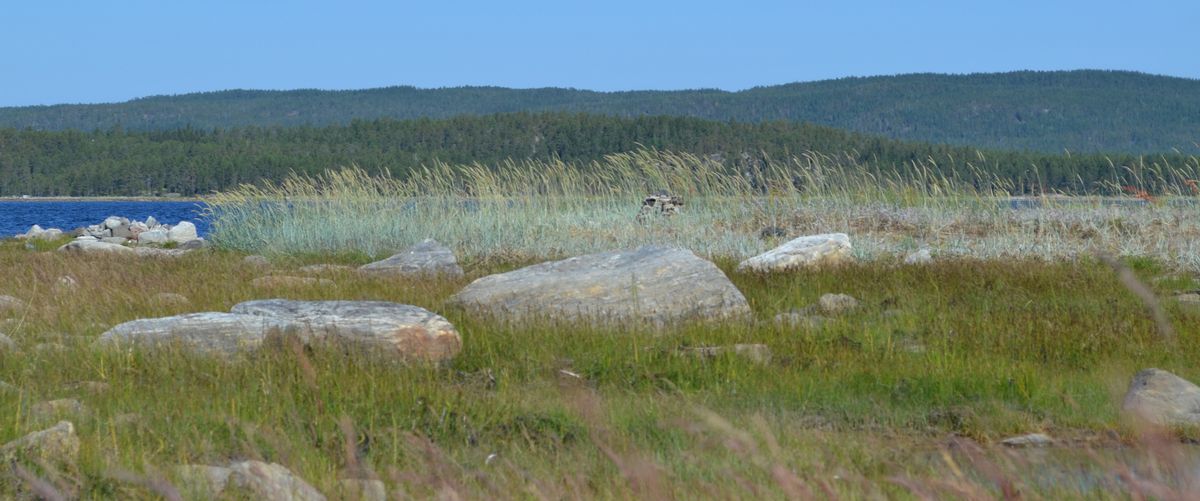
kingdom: Plantae
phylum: Tracheophyta
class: Liliopsida
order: Poales
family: Poaceae
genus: Leymus
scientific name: Leymus arenarius
